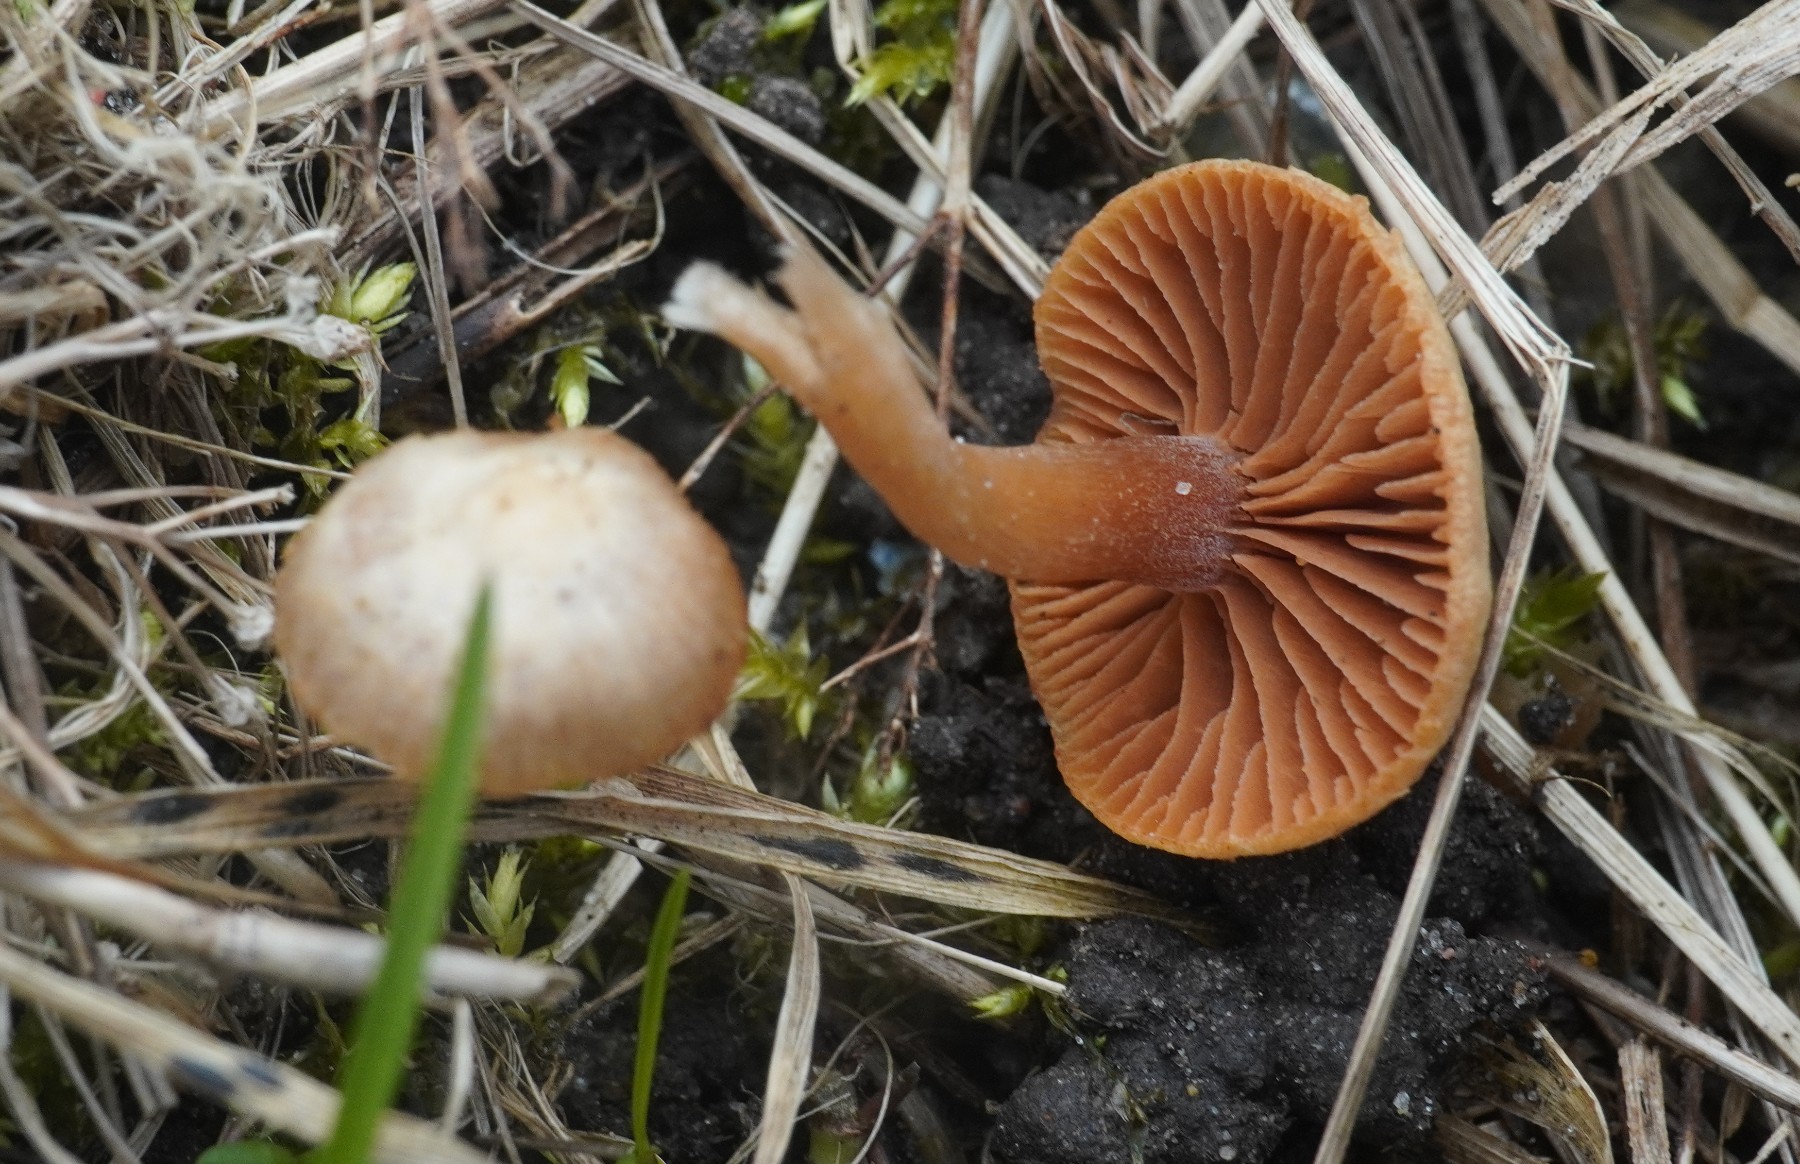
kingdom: Fungi
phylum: Basidiomycota
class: Agaricomycetes
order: Agaricales
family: Tubariaceae
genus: Tubaria
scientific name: Tubaria furfuracea
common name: kliddet fnughat
